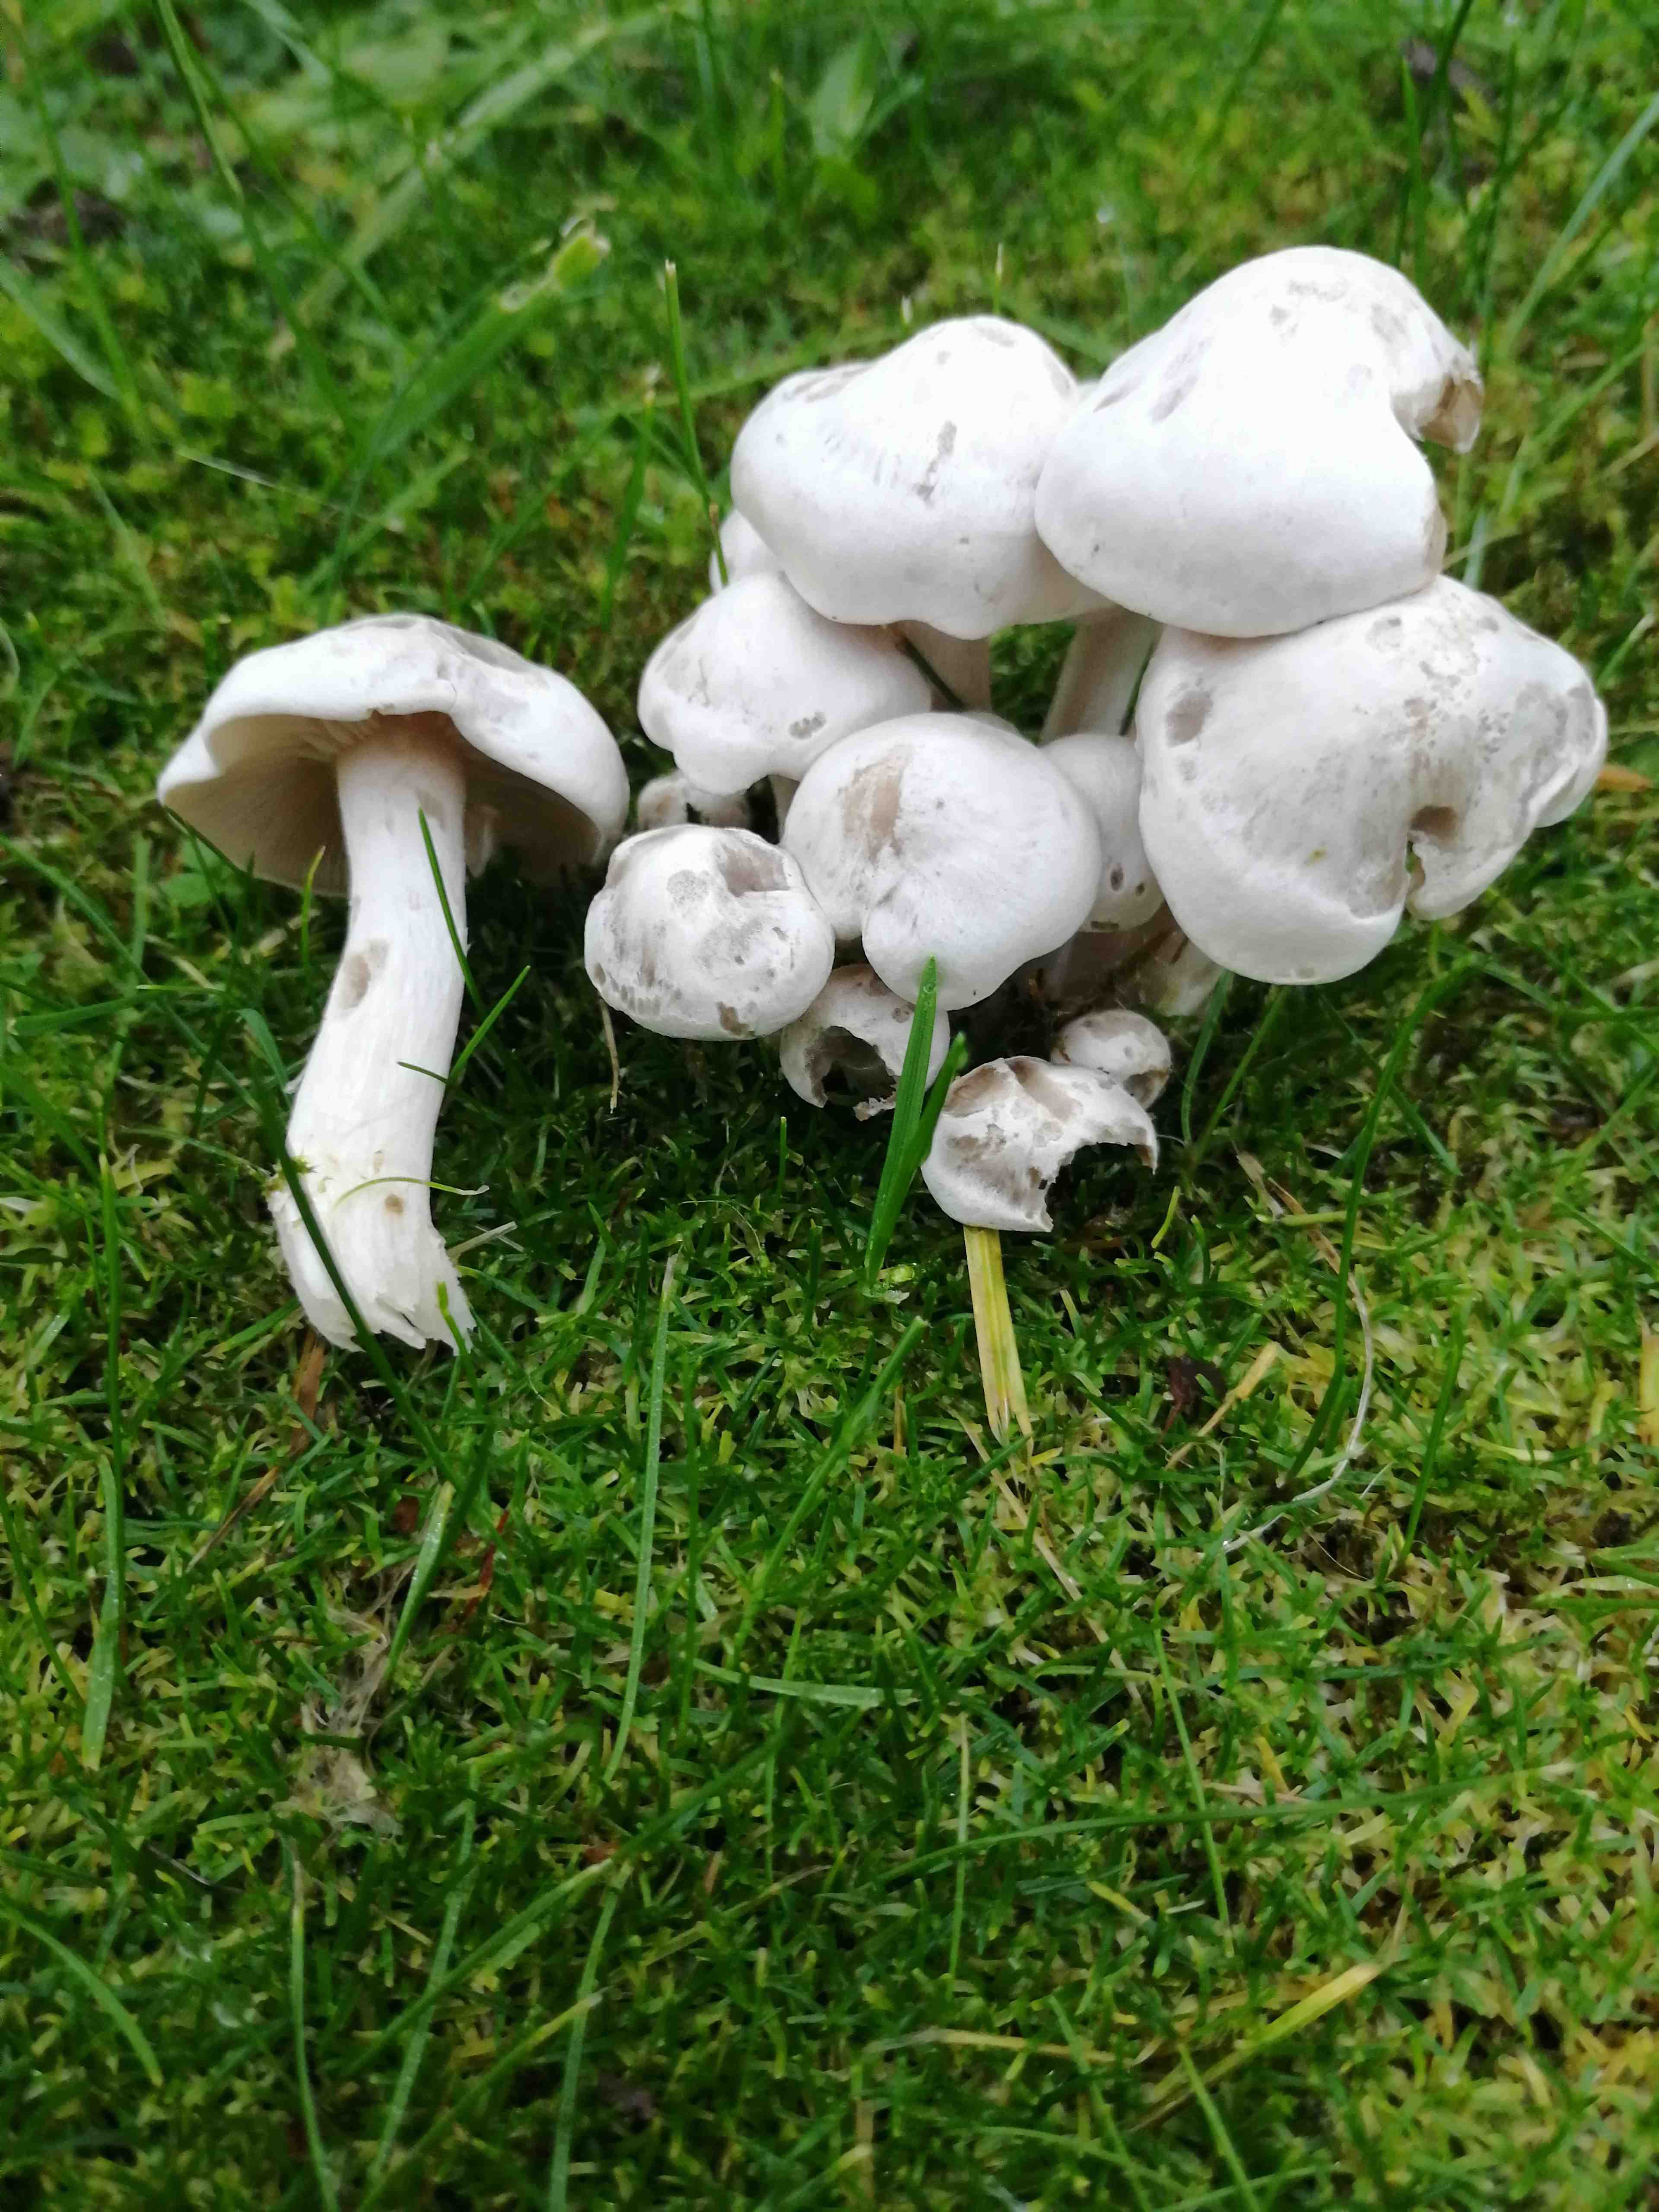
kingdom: Fungi
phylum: Basidiomycota
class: Agaricomycetes
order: Agaricales
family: Tricholomataceae
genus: Leucocybe
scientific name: Leucocybe connata
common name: knippe-tragthat
